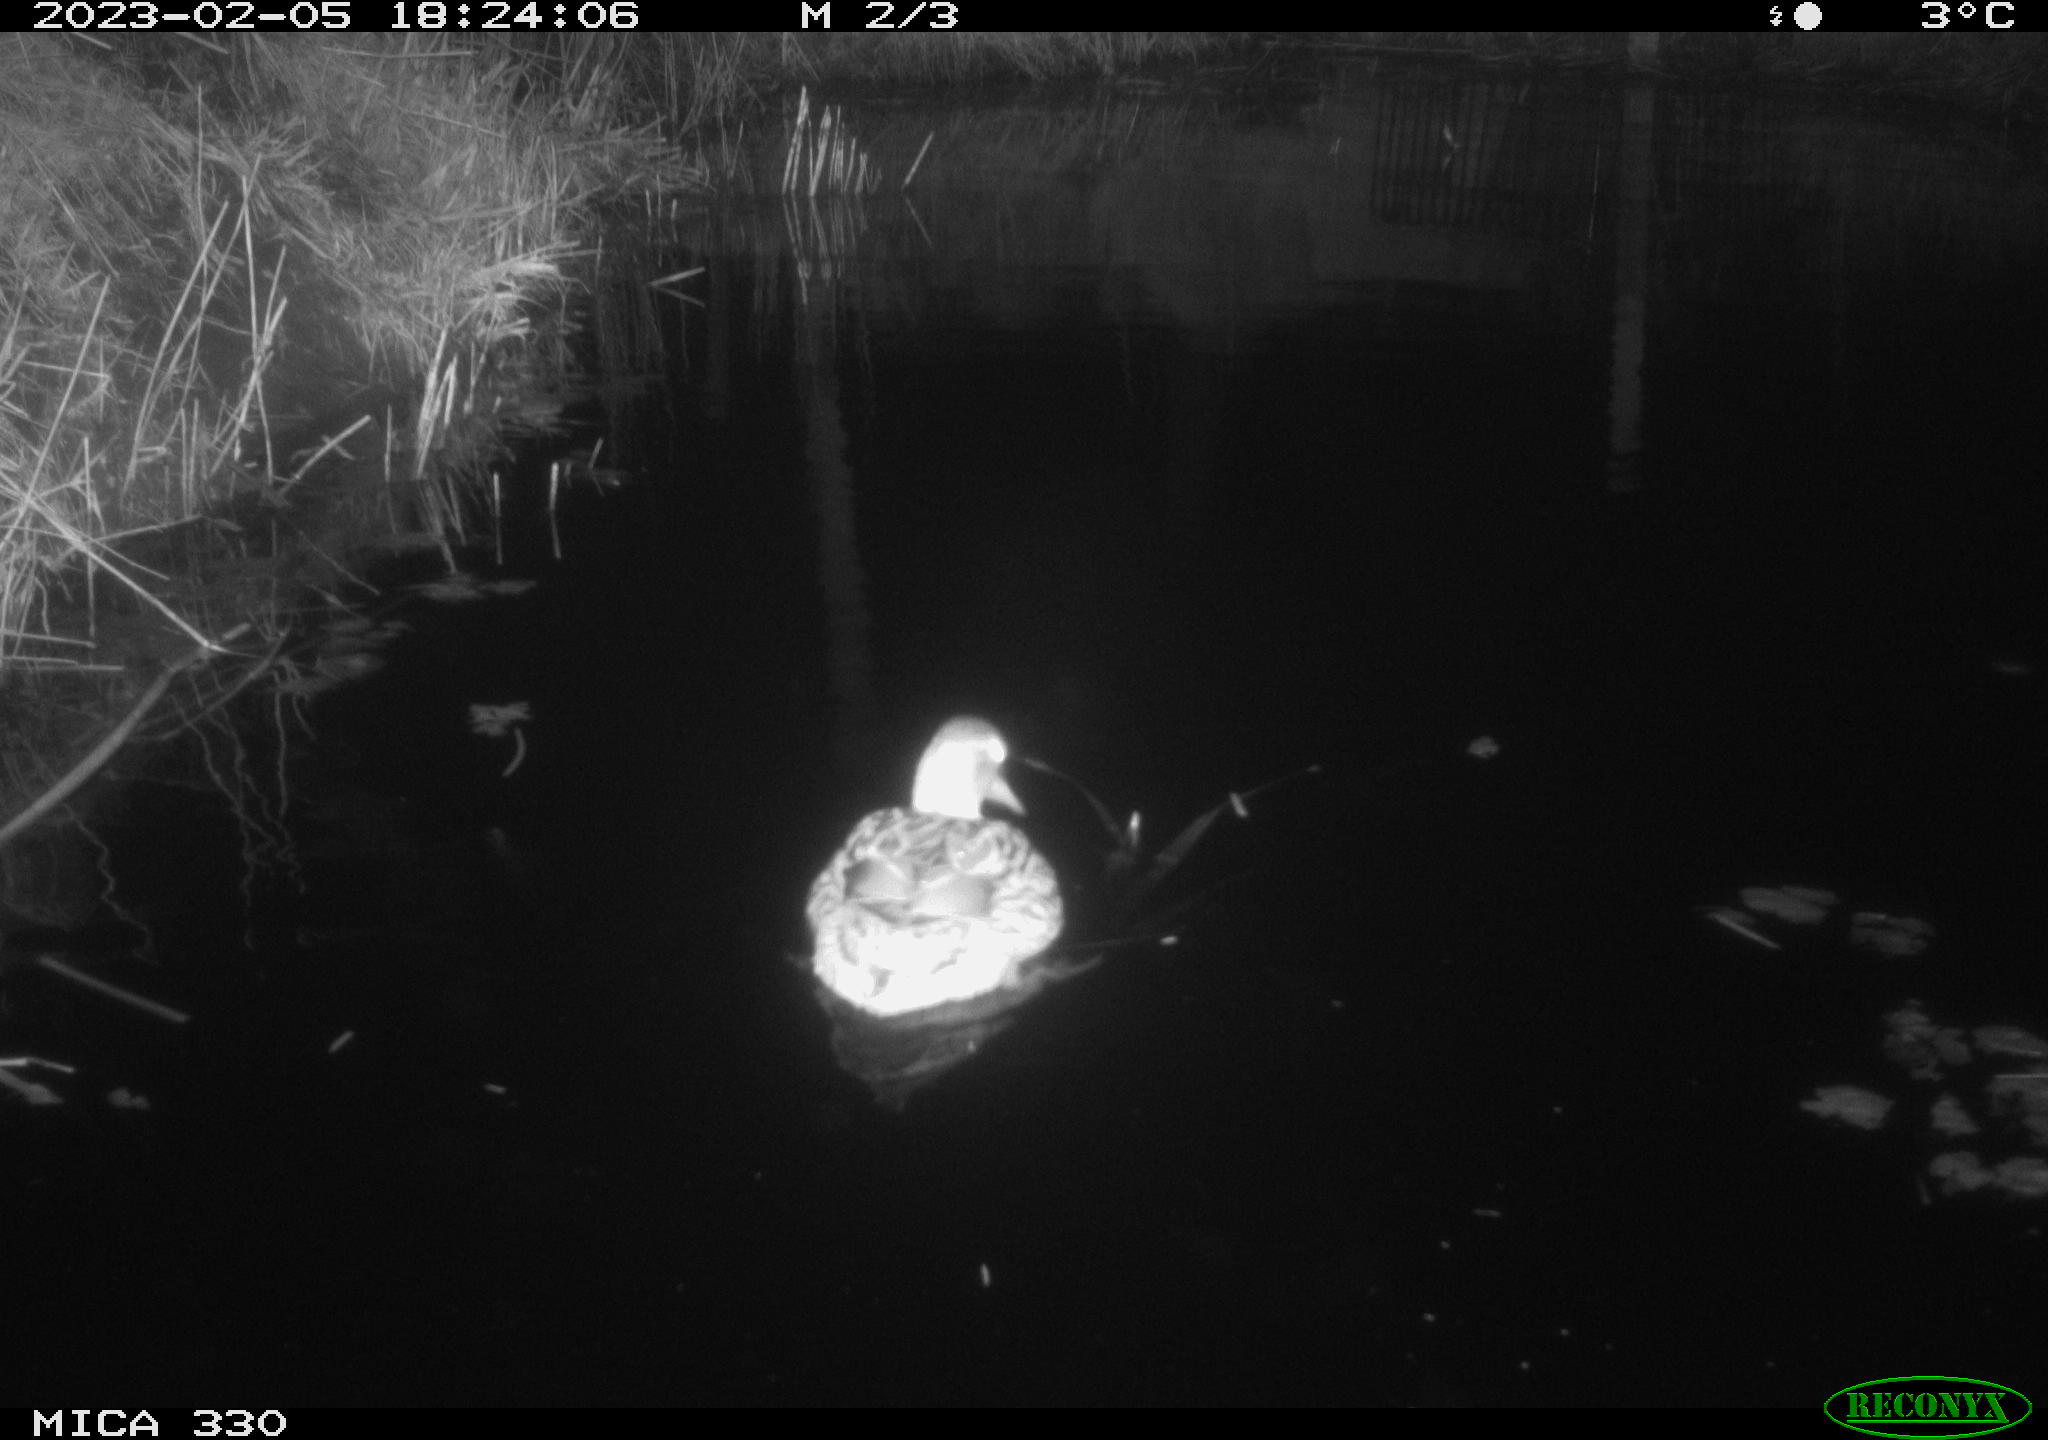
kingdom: Animalia
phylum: Chordata
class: Aves
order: Anseriformes
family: Anatidae
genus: Anas
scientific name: Anas
